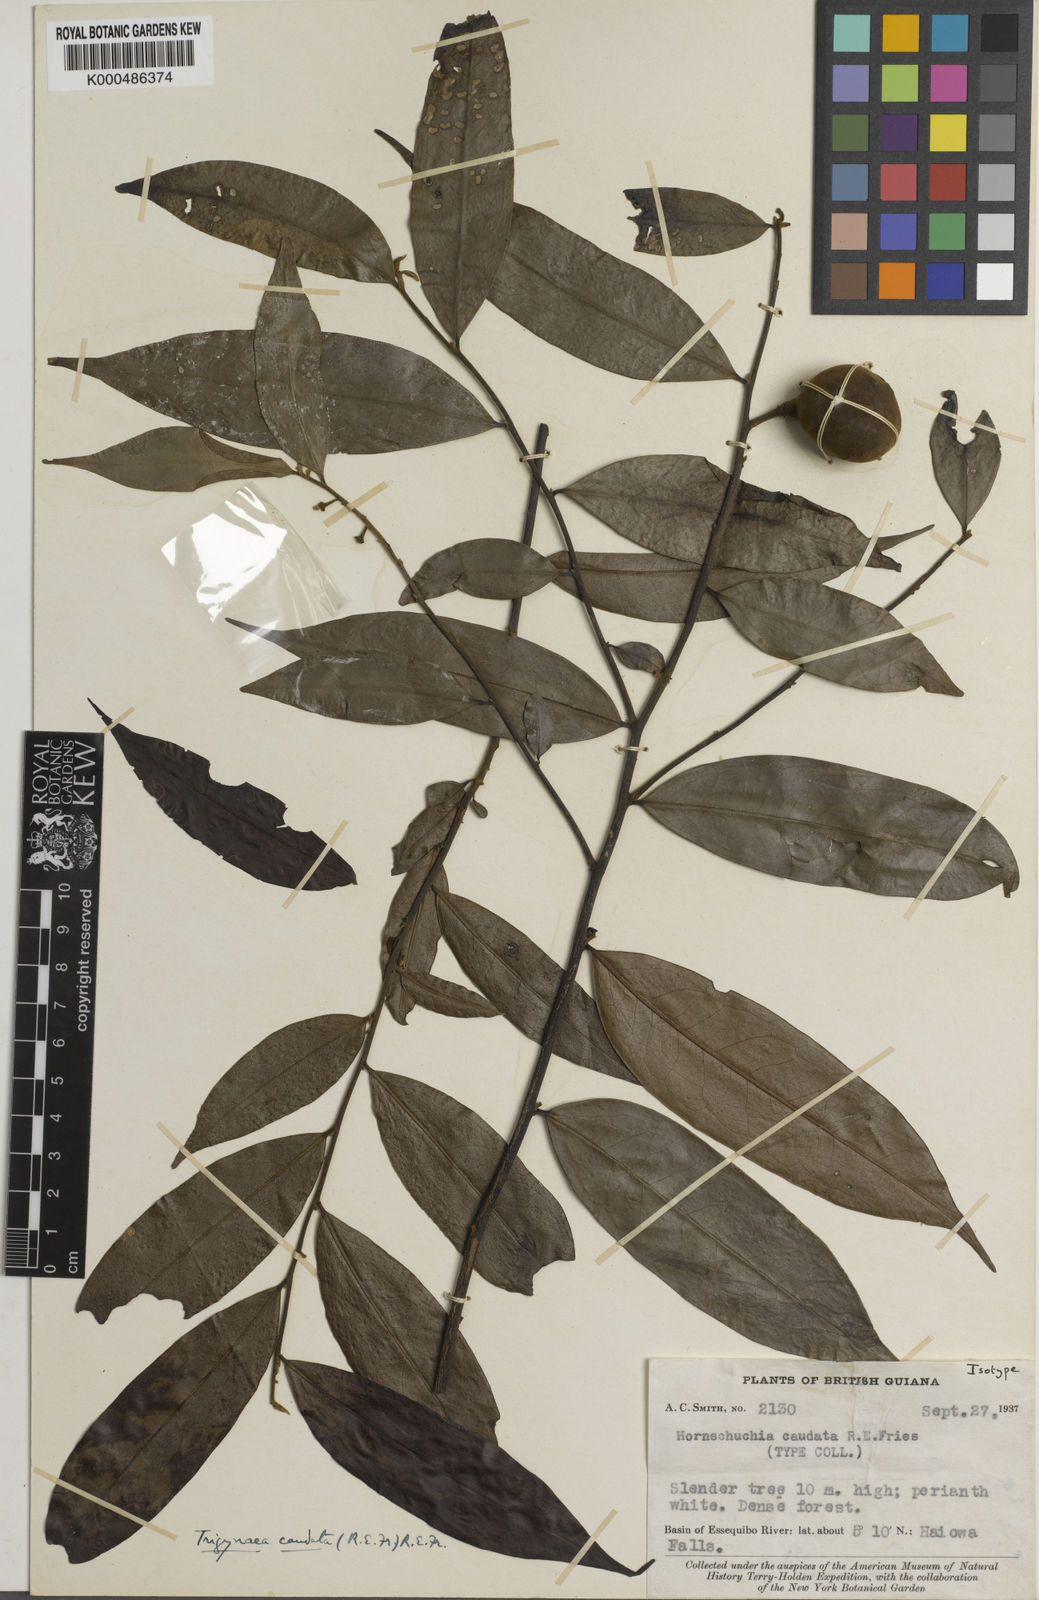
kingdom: Plantae
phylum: Tracheophyta
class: Magnoliopsida
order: Magnoliales
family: Annonaceae
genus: Trigynaea
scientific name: Trigynaea caudata
